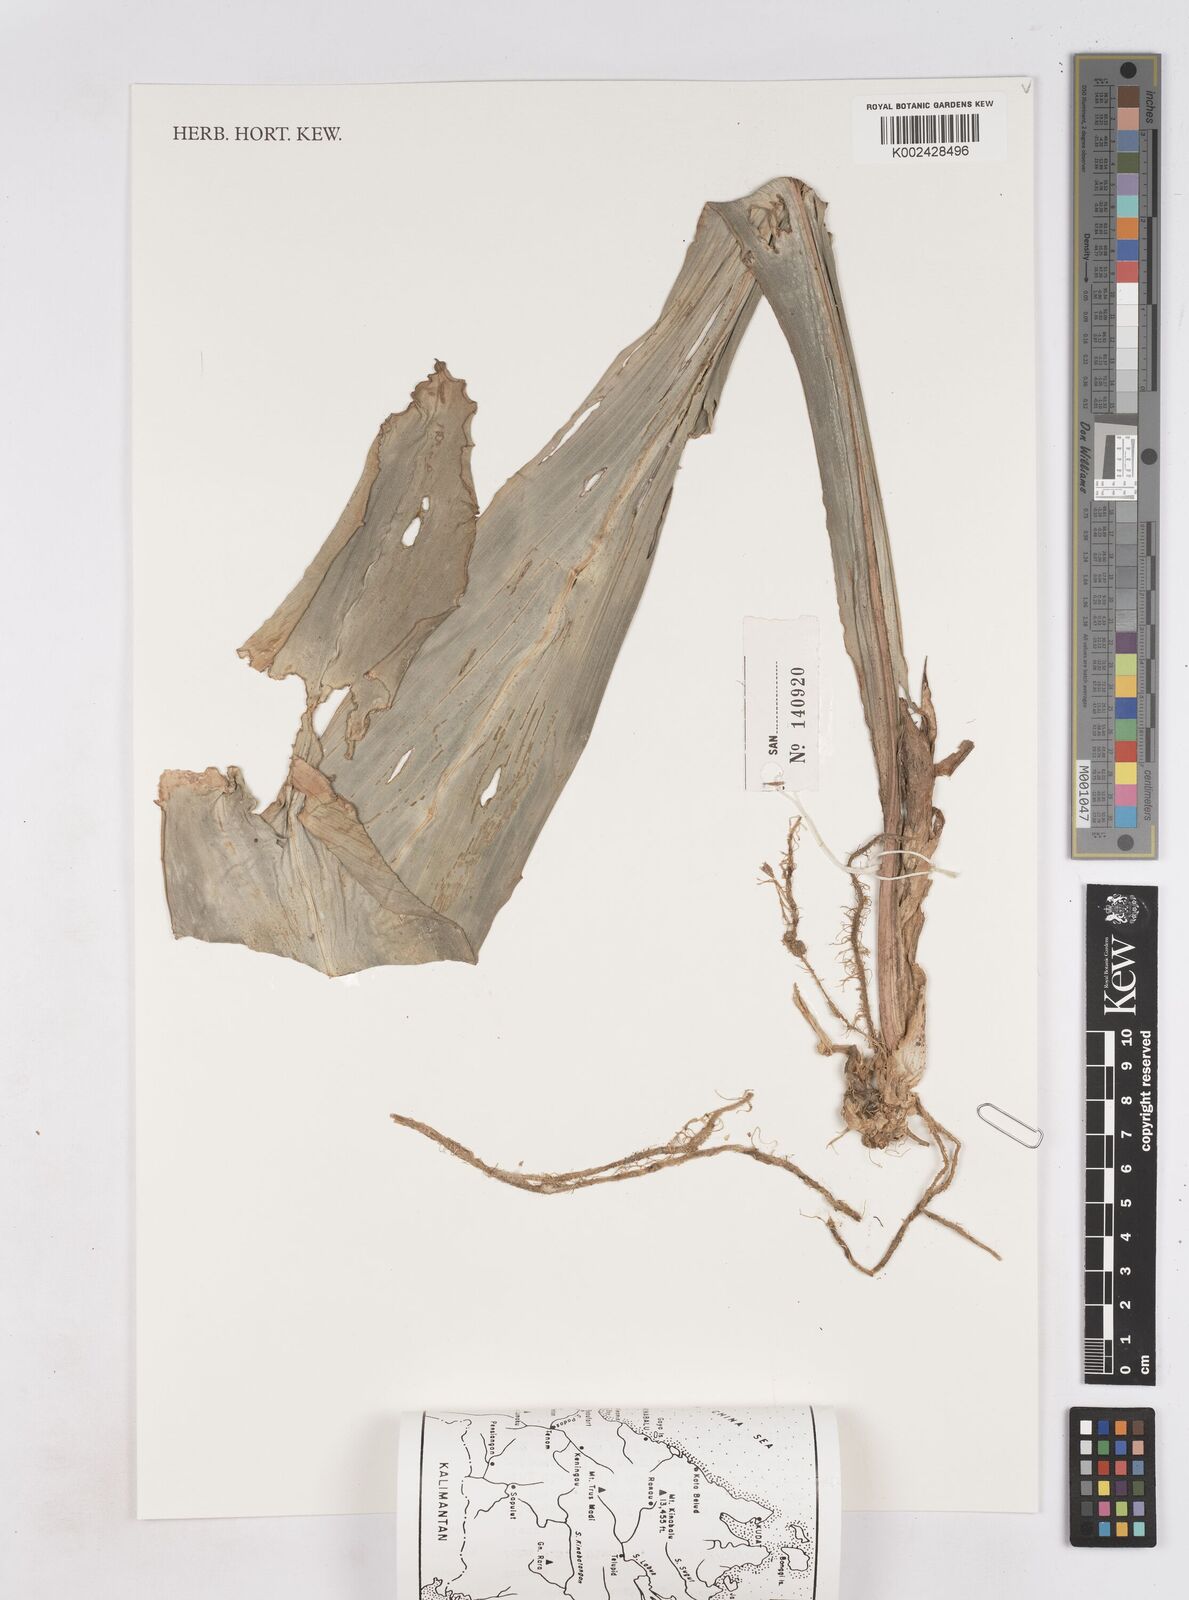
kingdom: Plantae
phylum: Tracheophyta
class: Liliopsida
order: Zingiberales
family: Zingiberaceae
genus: Boesenbergia
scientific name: Boesenbergia
